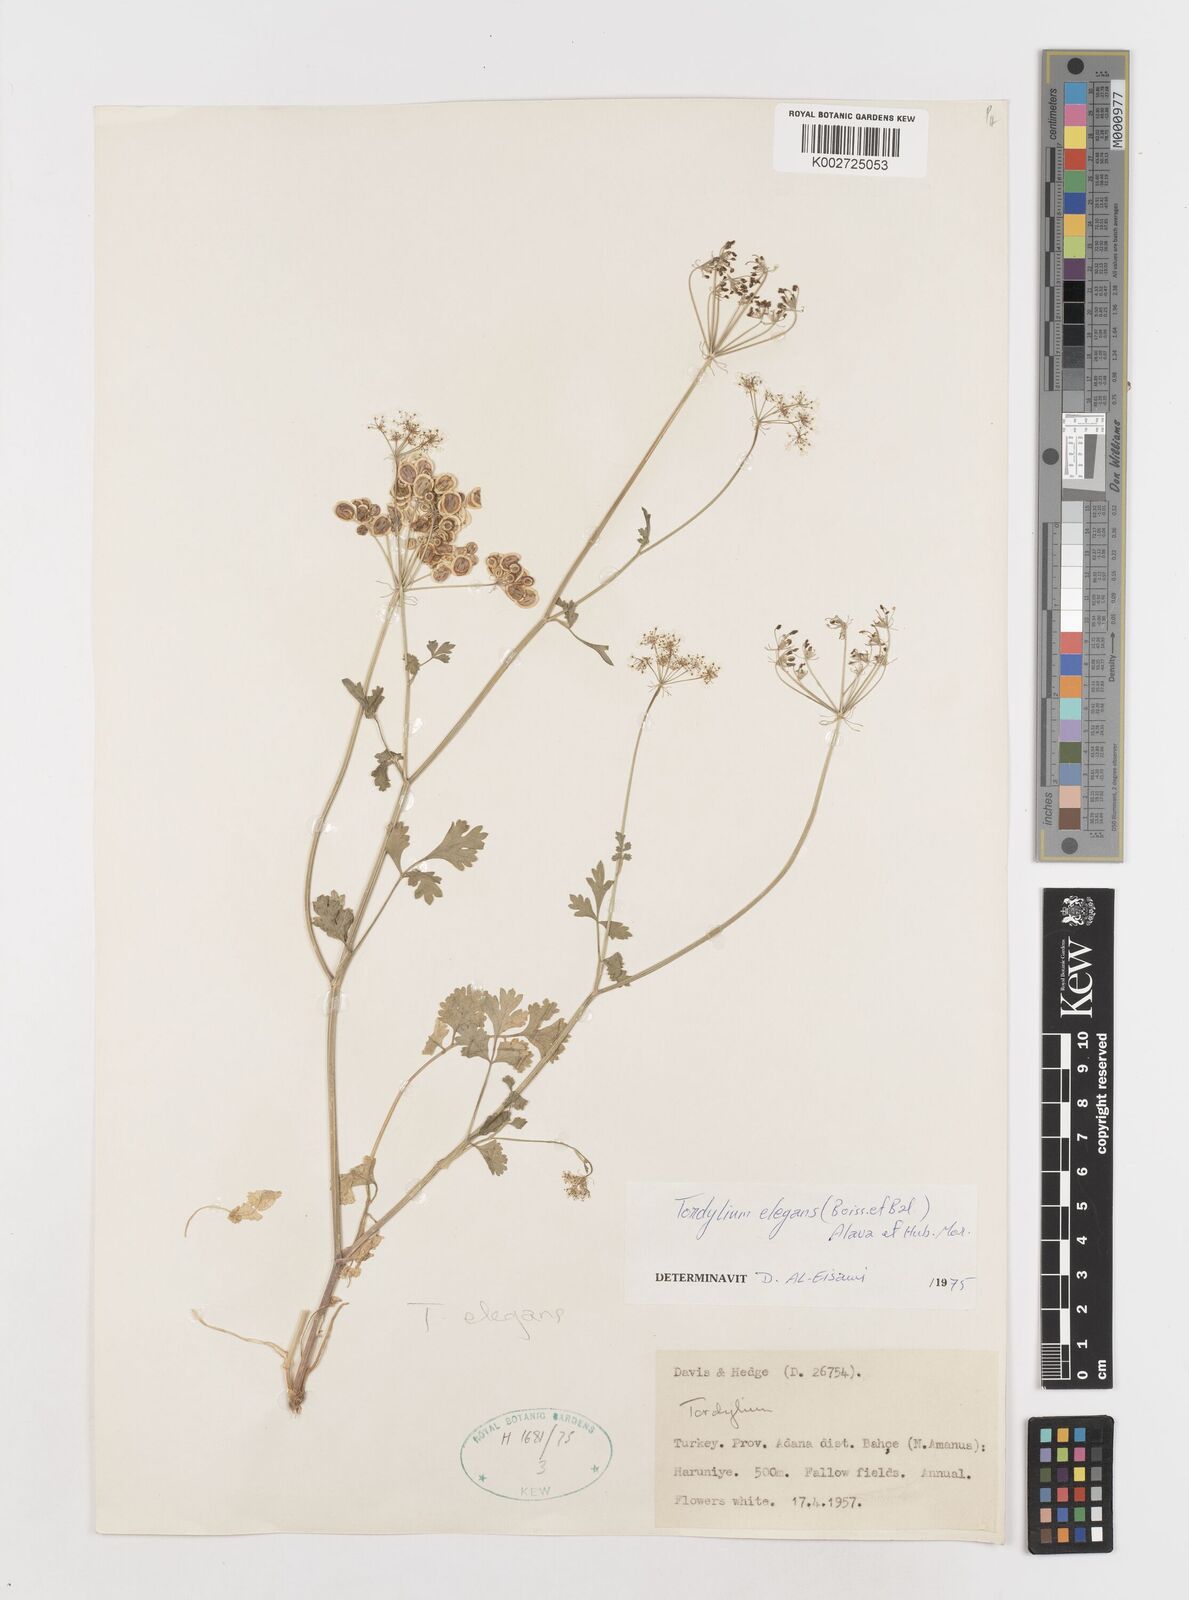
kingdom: Plantae
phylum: Tracheophyta
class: Magnoliopsida
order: Apiales
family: Apiaceae
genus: Ainsworthia
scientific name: Ainsworthia elegans
